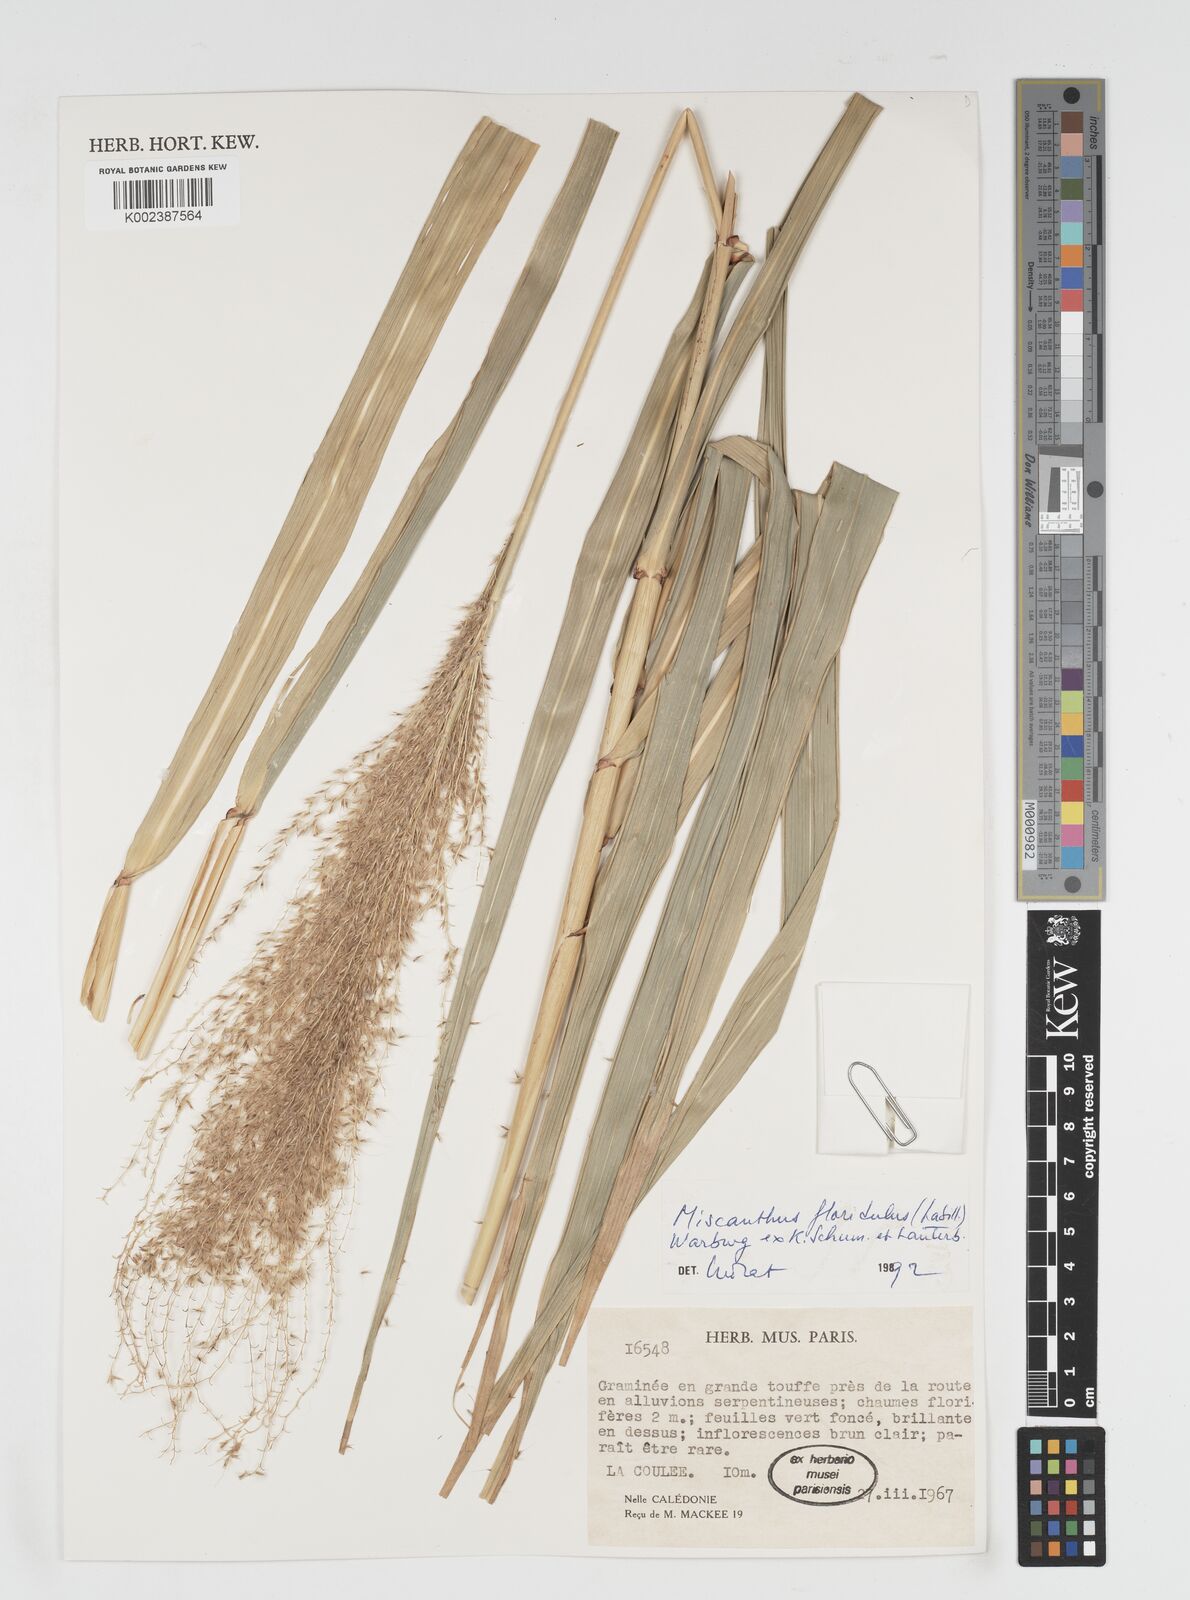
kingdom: Plantae
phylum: Tracheophyta
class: Liliopsida
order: Poales
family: Poaceae
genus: Miscanthus
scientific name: Miscanthus floridulus
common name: Pacific island silvergrass
